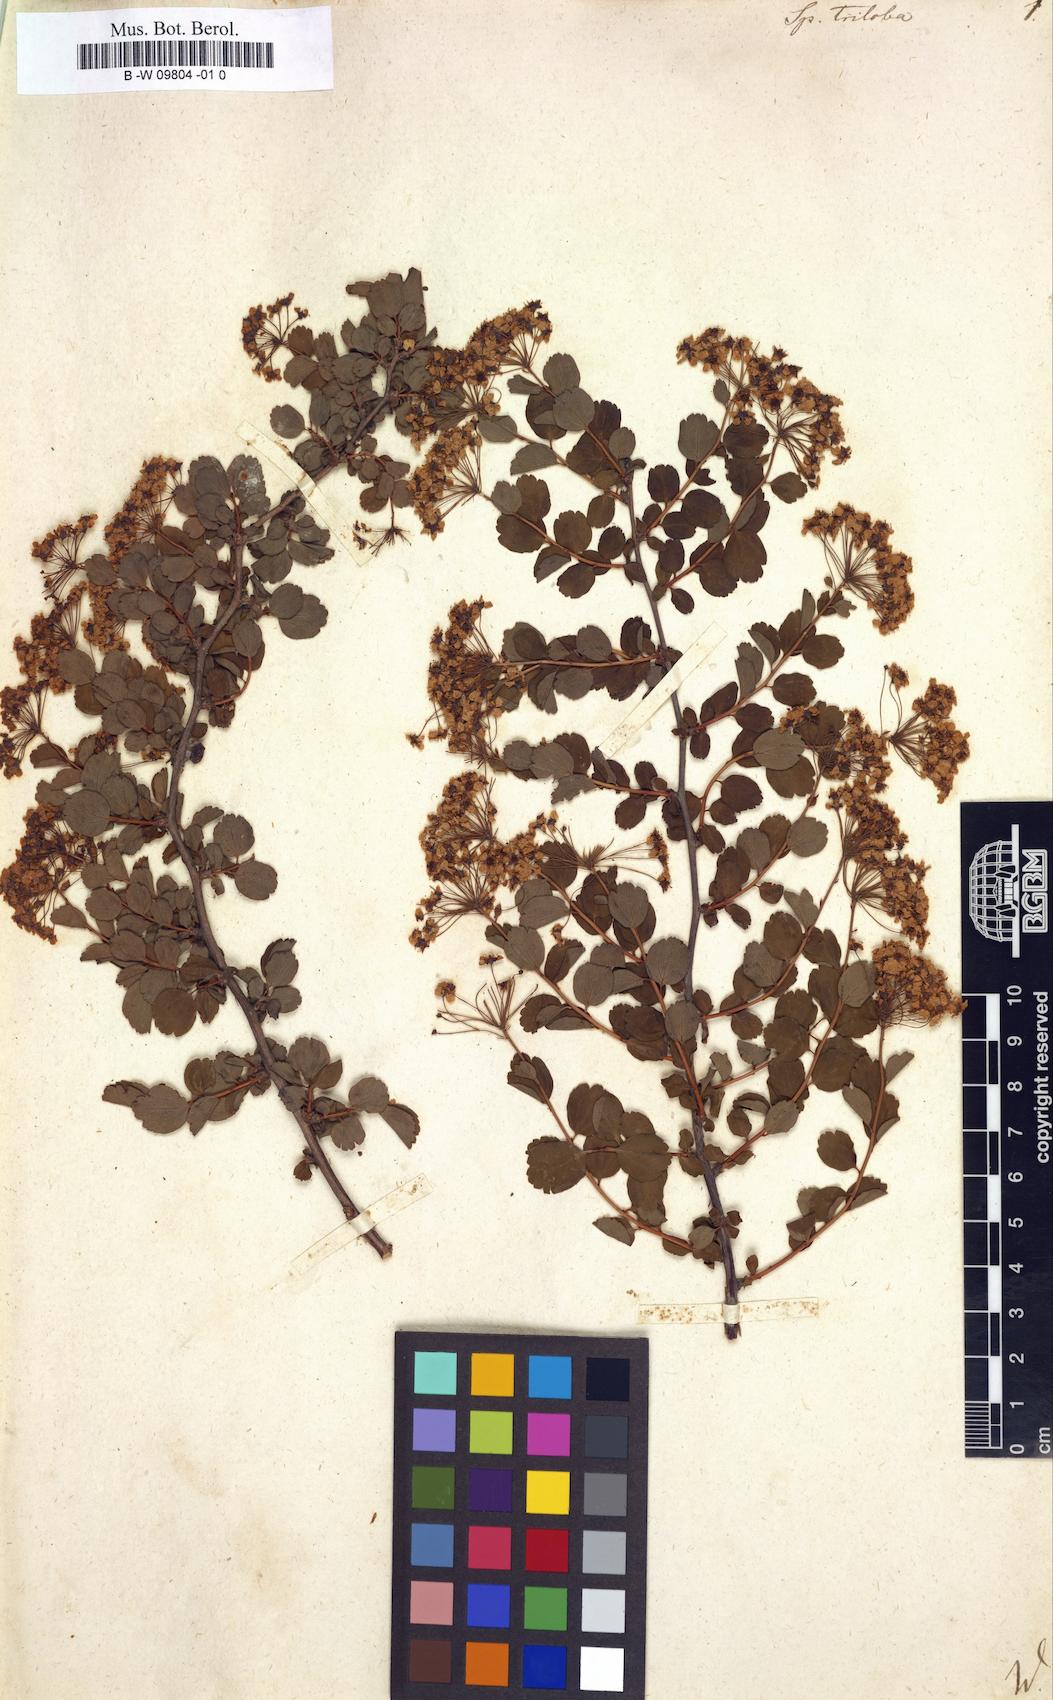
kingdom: Plantae
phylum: Tracheophyta
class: Magnoliopsida
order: Rosales
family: Rosaceae
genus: Spiraea
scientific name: Spiraea trilobata
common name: Asian meadowsweet
